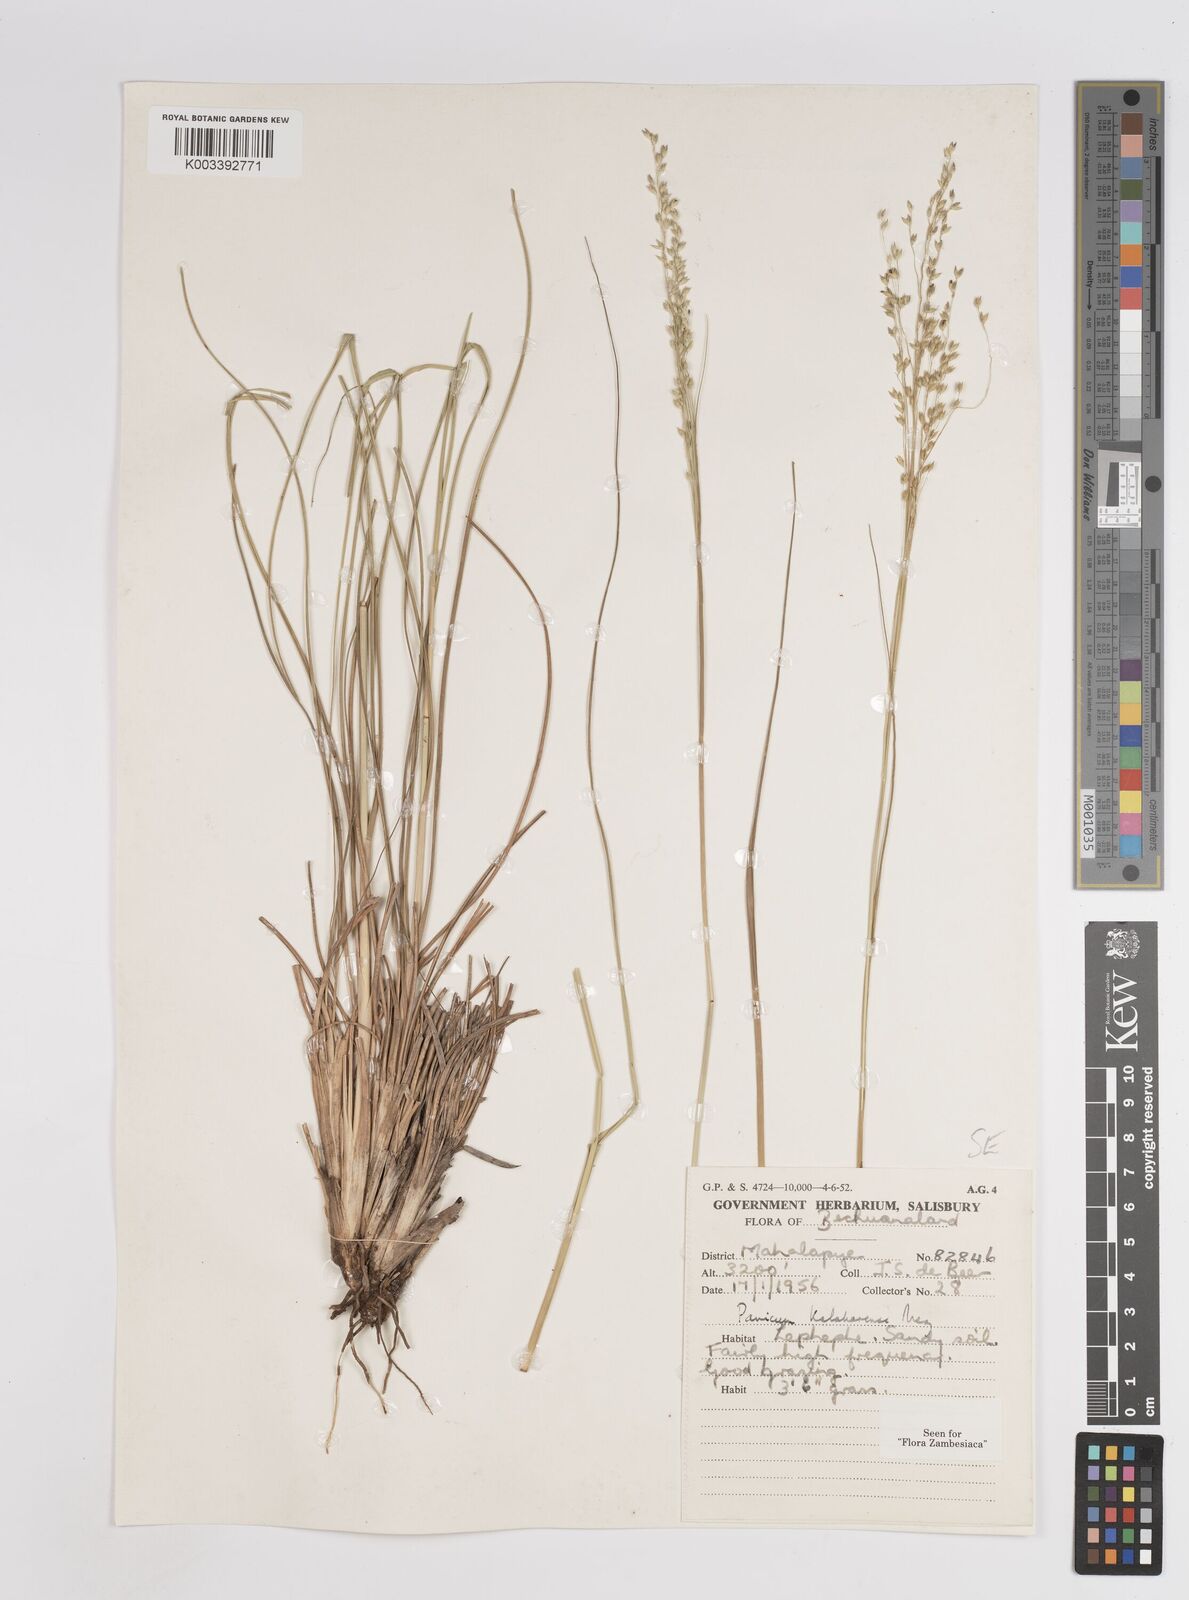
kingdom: Plantae
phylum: Tracheophyta
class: Liliopsida
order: Poales
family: Poaceae
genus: Panicum
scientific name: Panicum kalaharense
